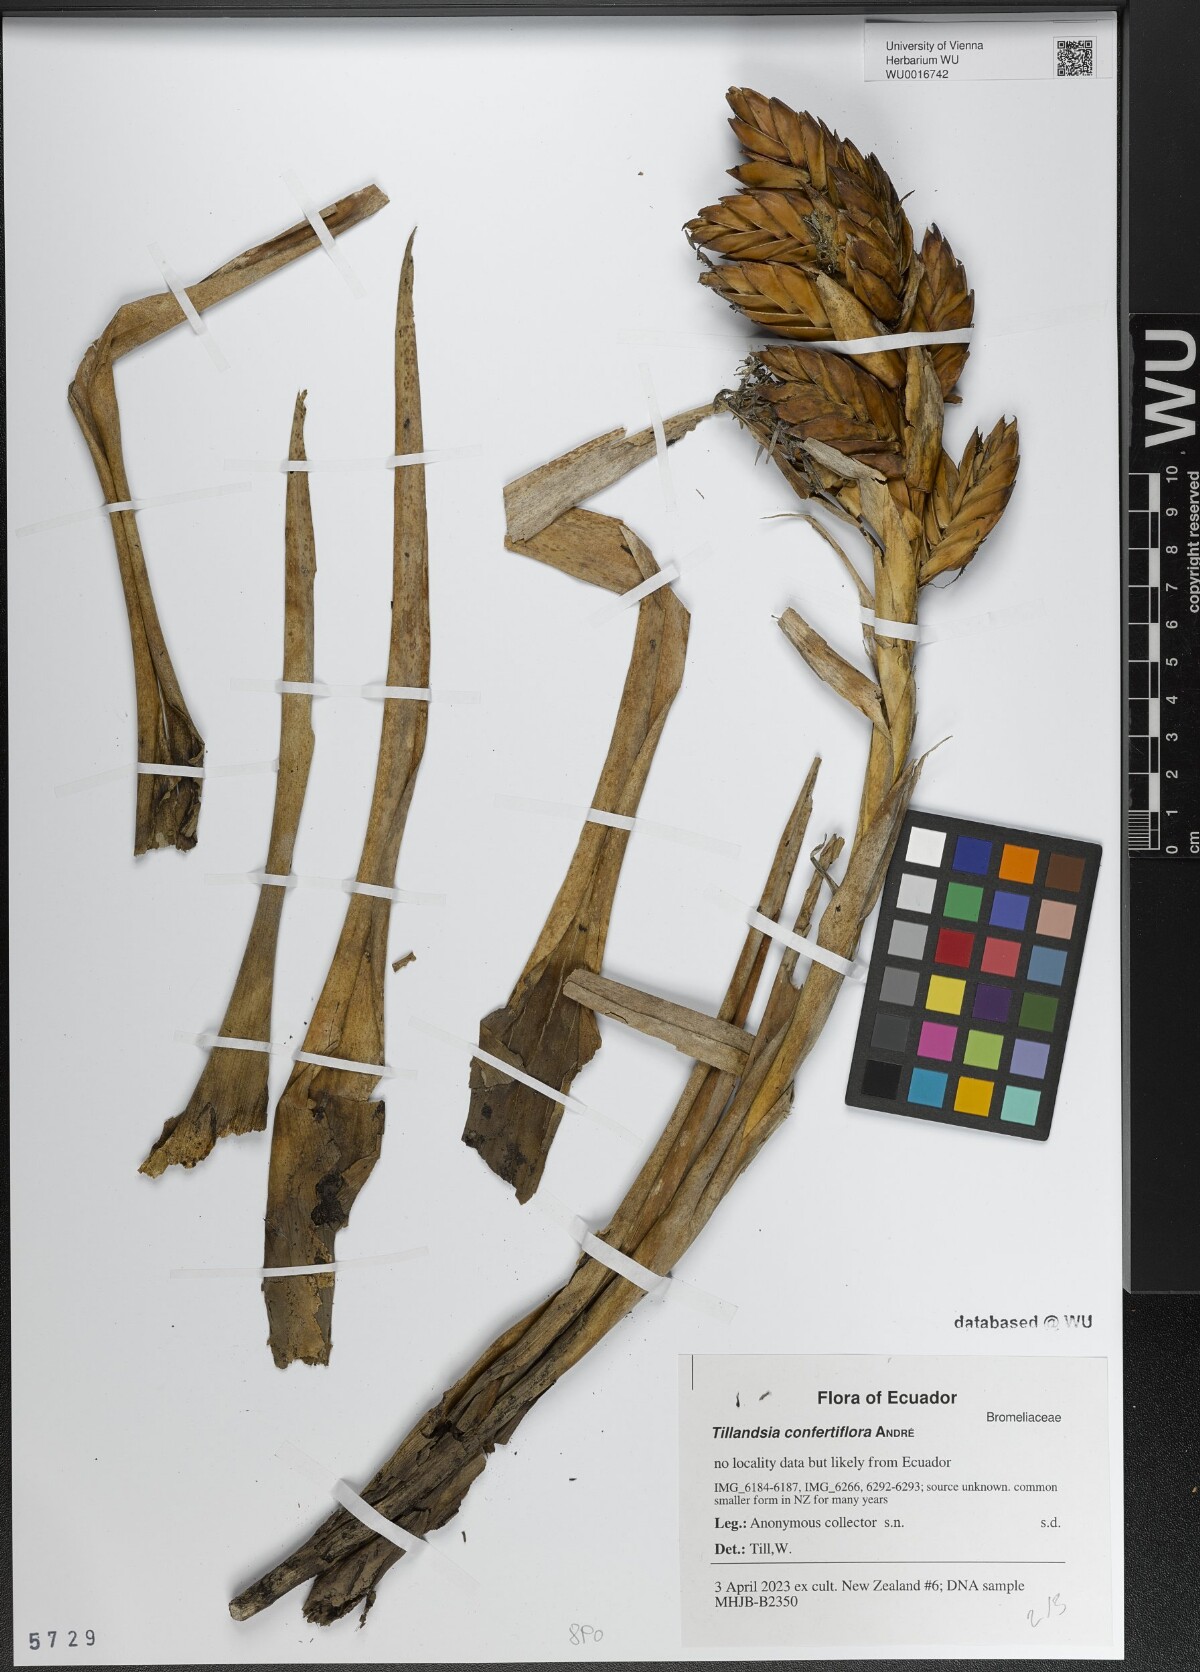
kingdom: Plantae
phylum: Tracheophyta
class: Liliopsida
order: Poales
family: Bromeliaceae
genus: Tillandsia
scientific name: Tillandsia confertiflora
